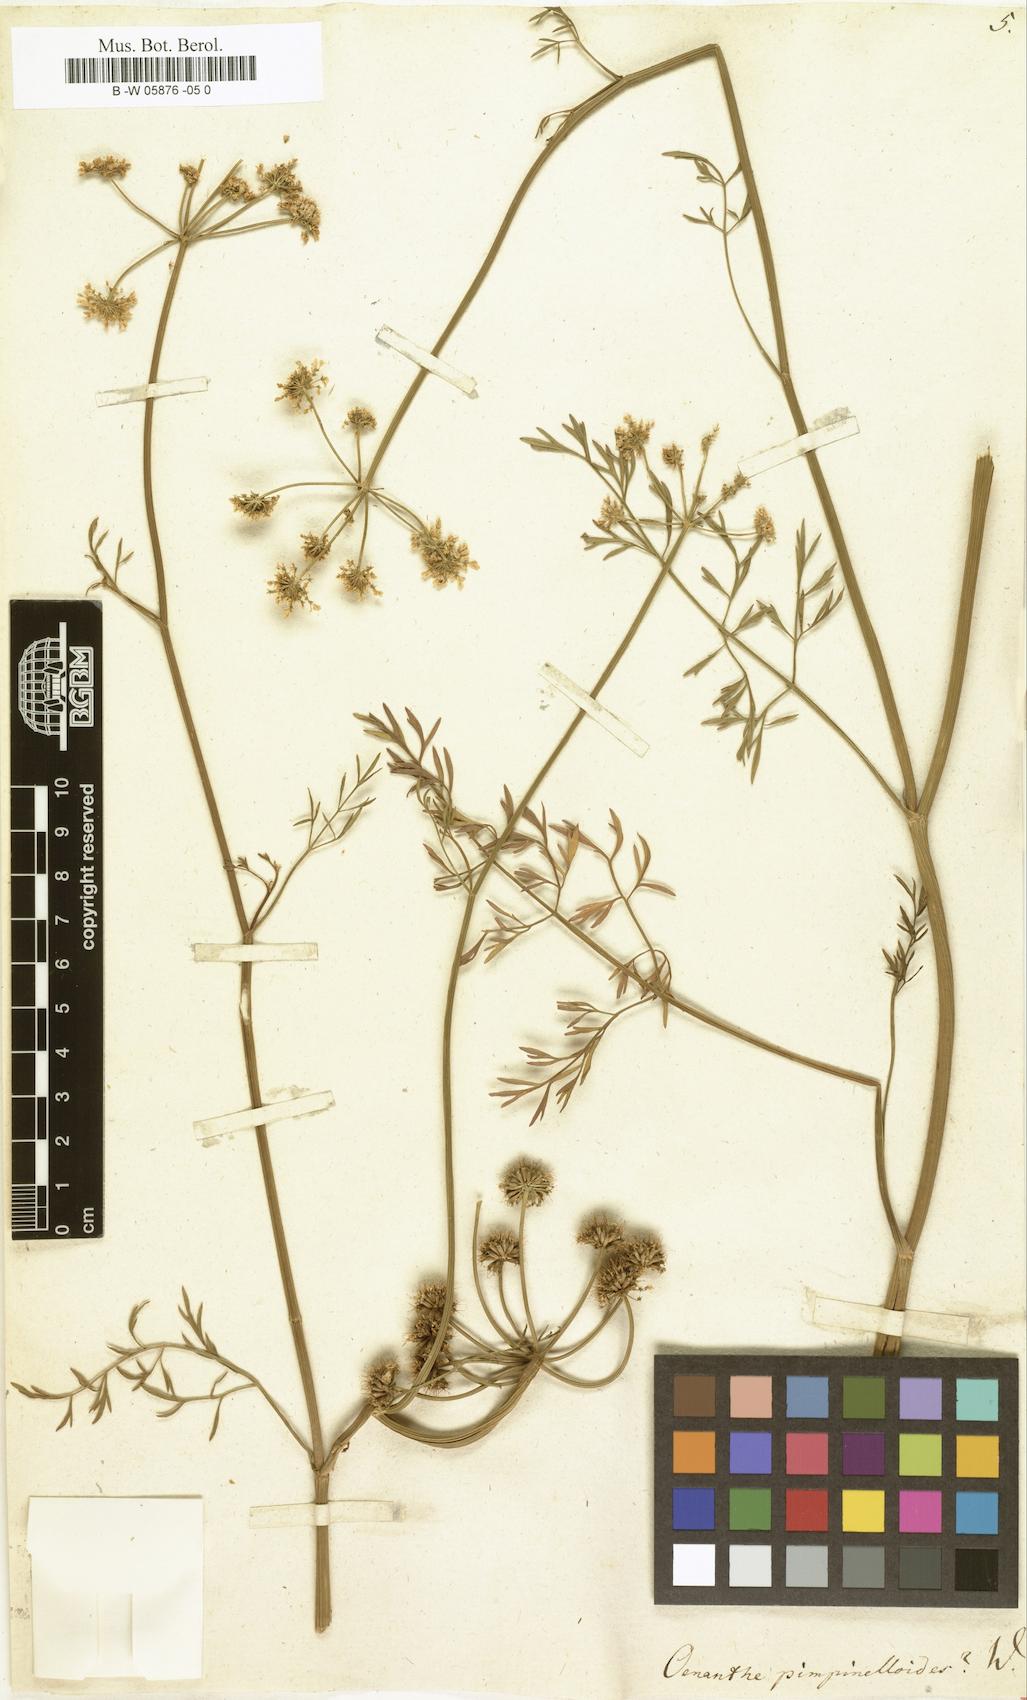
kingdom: Plantae
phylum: Tracheophyta
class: Magnoliopsida
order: Apiales
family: Apiaceae
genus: Oenanthe
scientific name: Oenanthe pimpinelloides
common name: Corky-fruited water-dropwort
